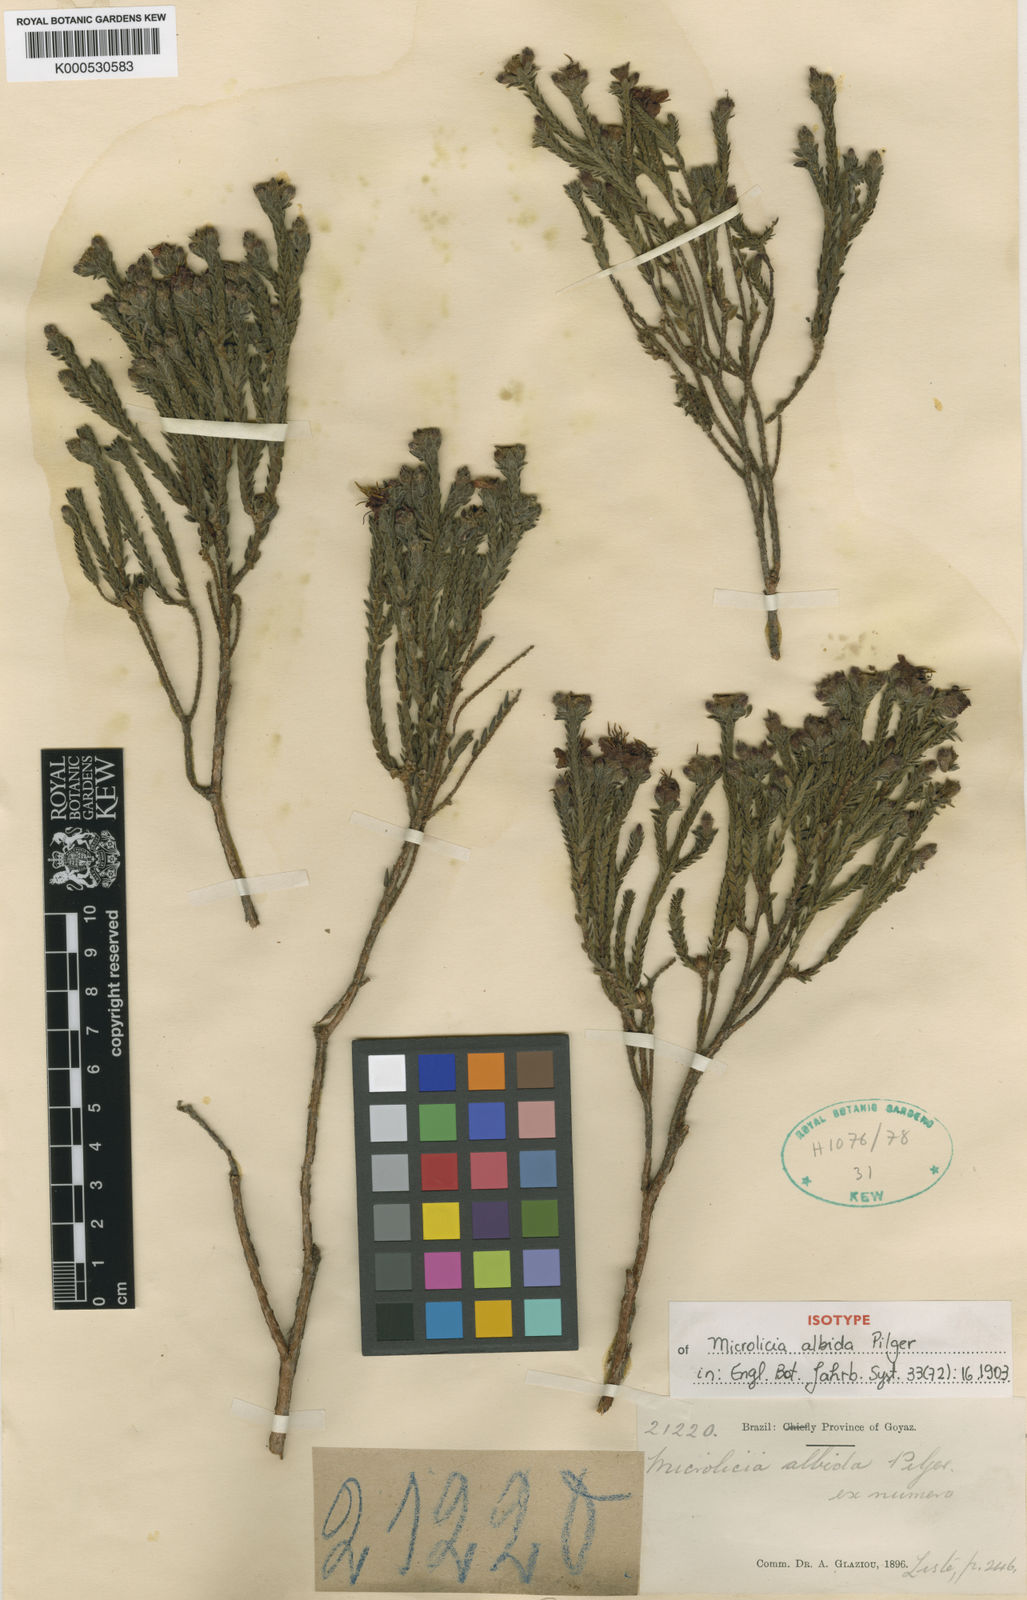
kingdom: Plantae
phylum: Tracheophyta
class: Magnoliopsida
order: Myrtales
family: Melastomataceae
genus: Microlicia
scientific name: Microlicia cryptandra
